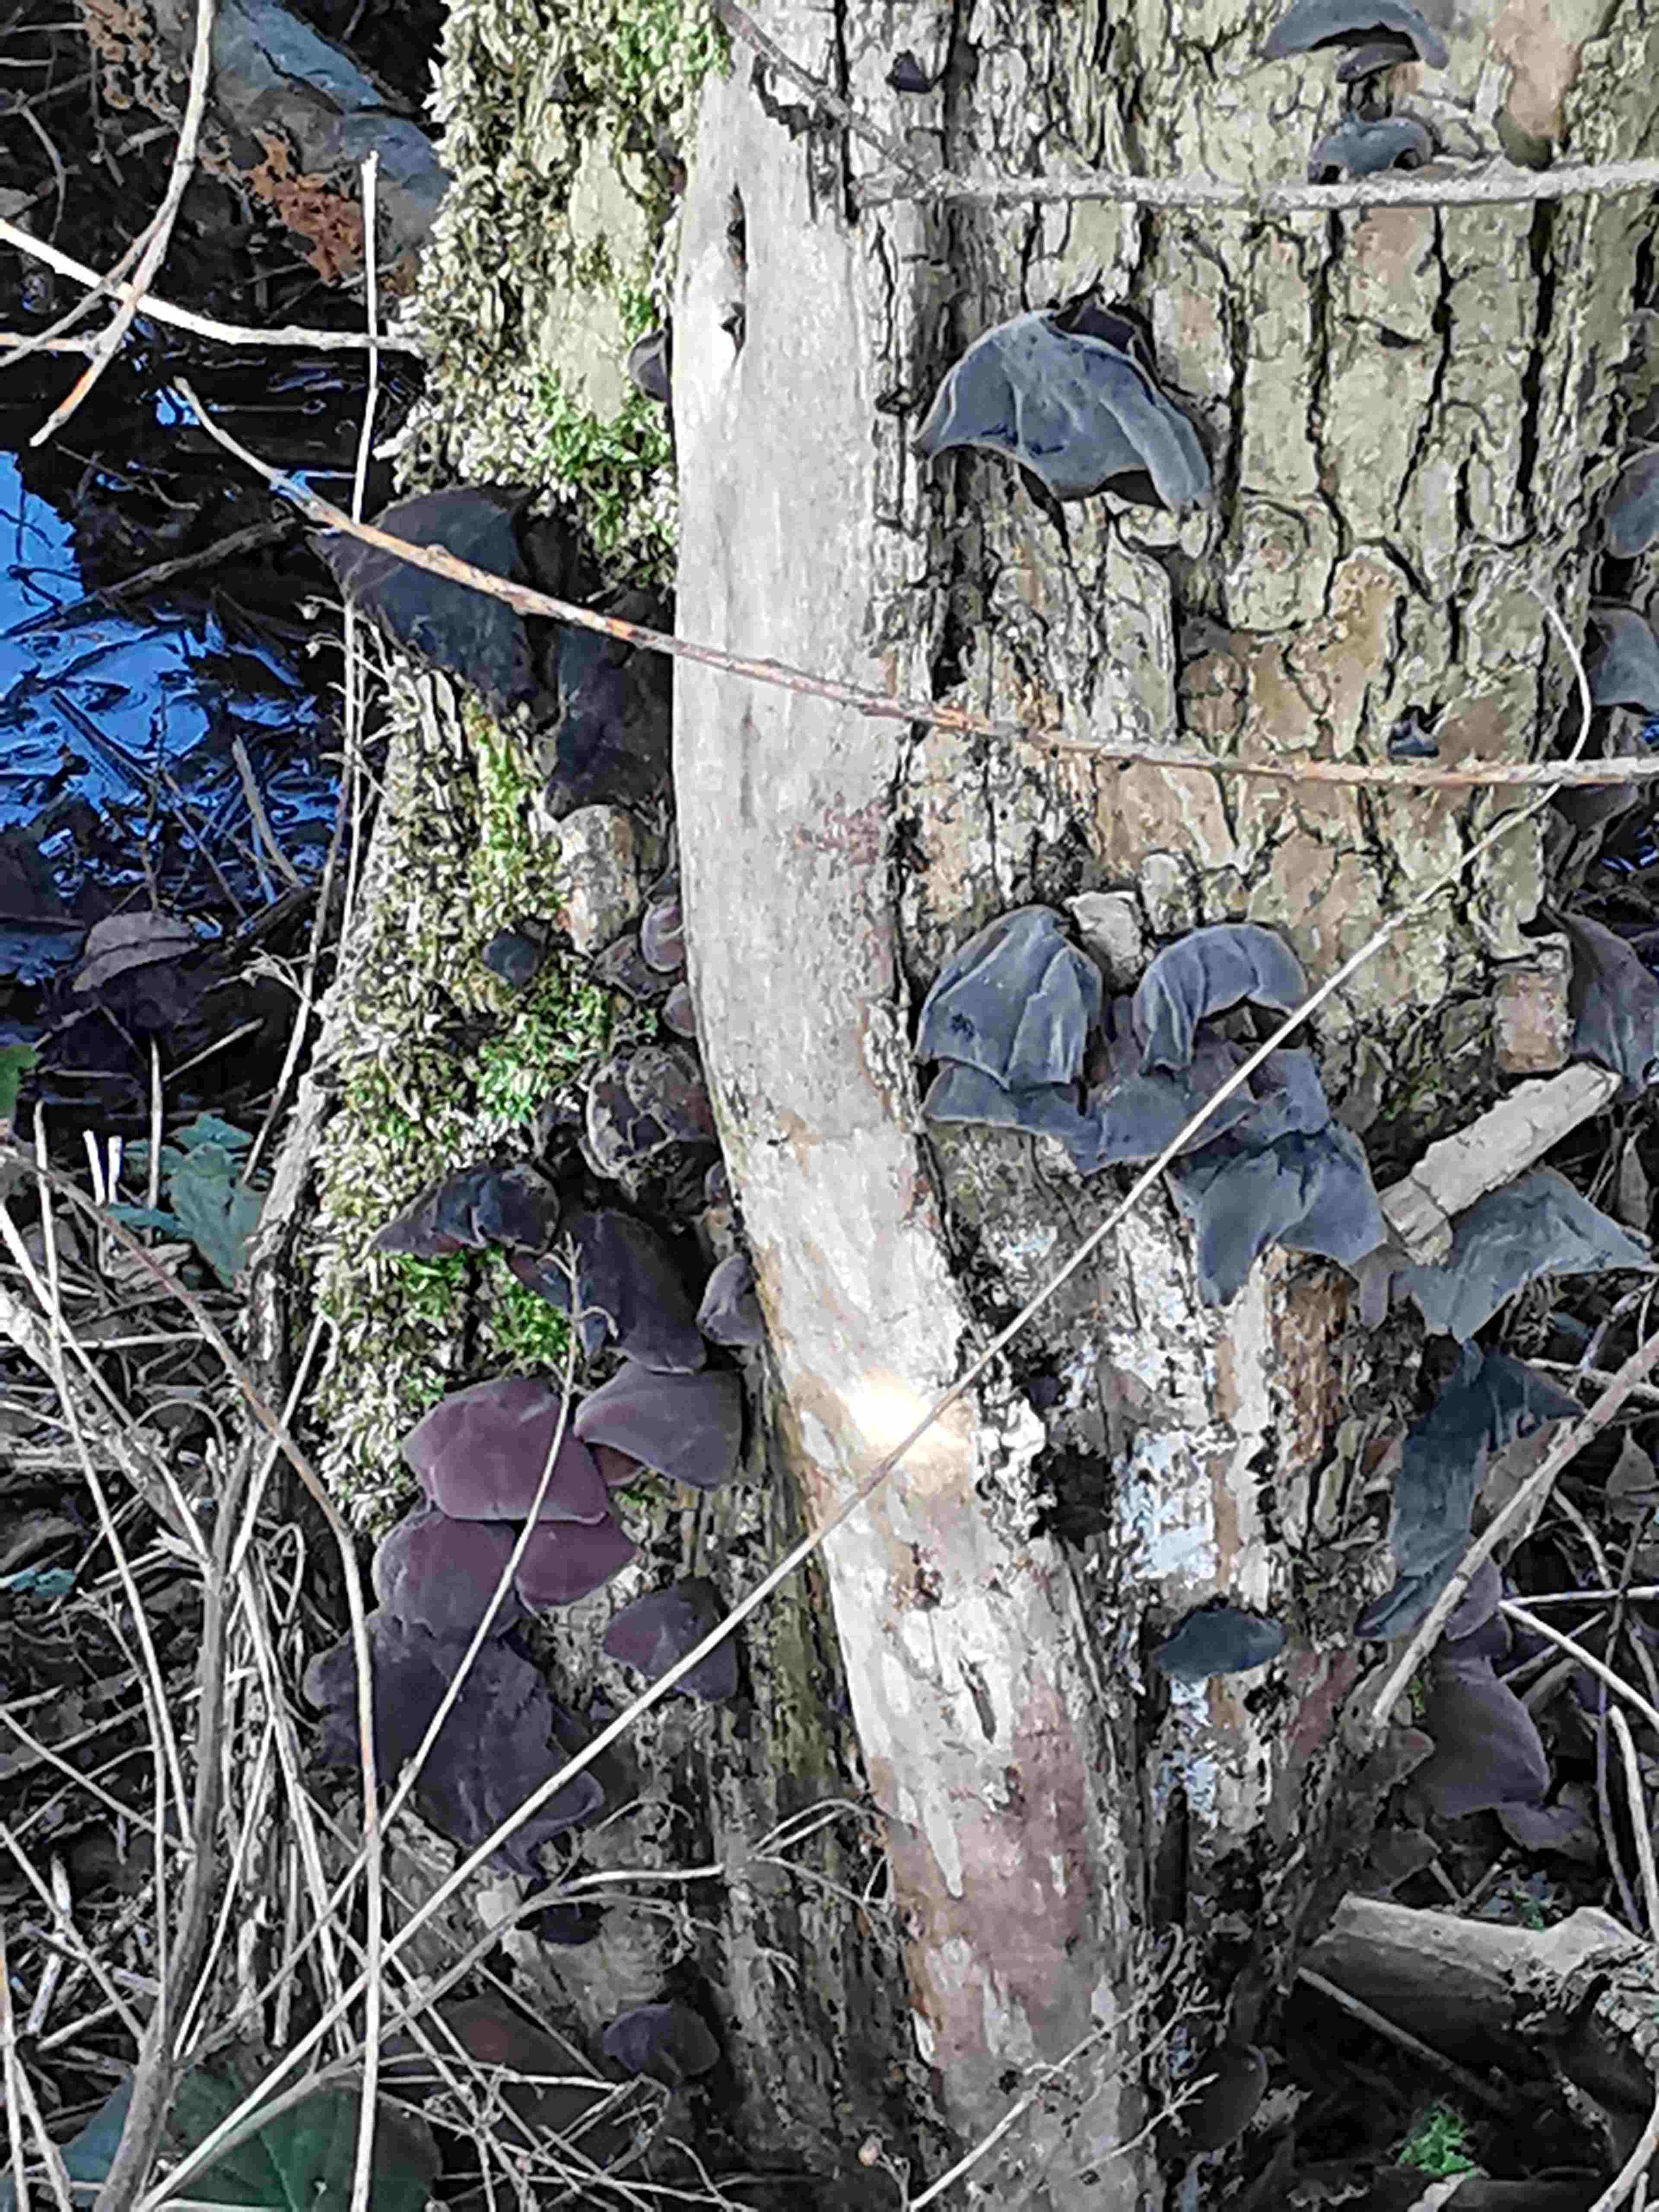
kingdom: Fungi
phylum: Basidiomycota
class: Agaricomycetes
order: Auriculariales
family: Auriculariaceae
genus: Auricularia
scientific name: Auricularia auricula-judae
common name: almindelig judasøre
